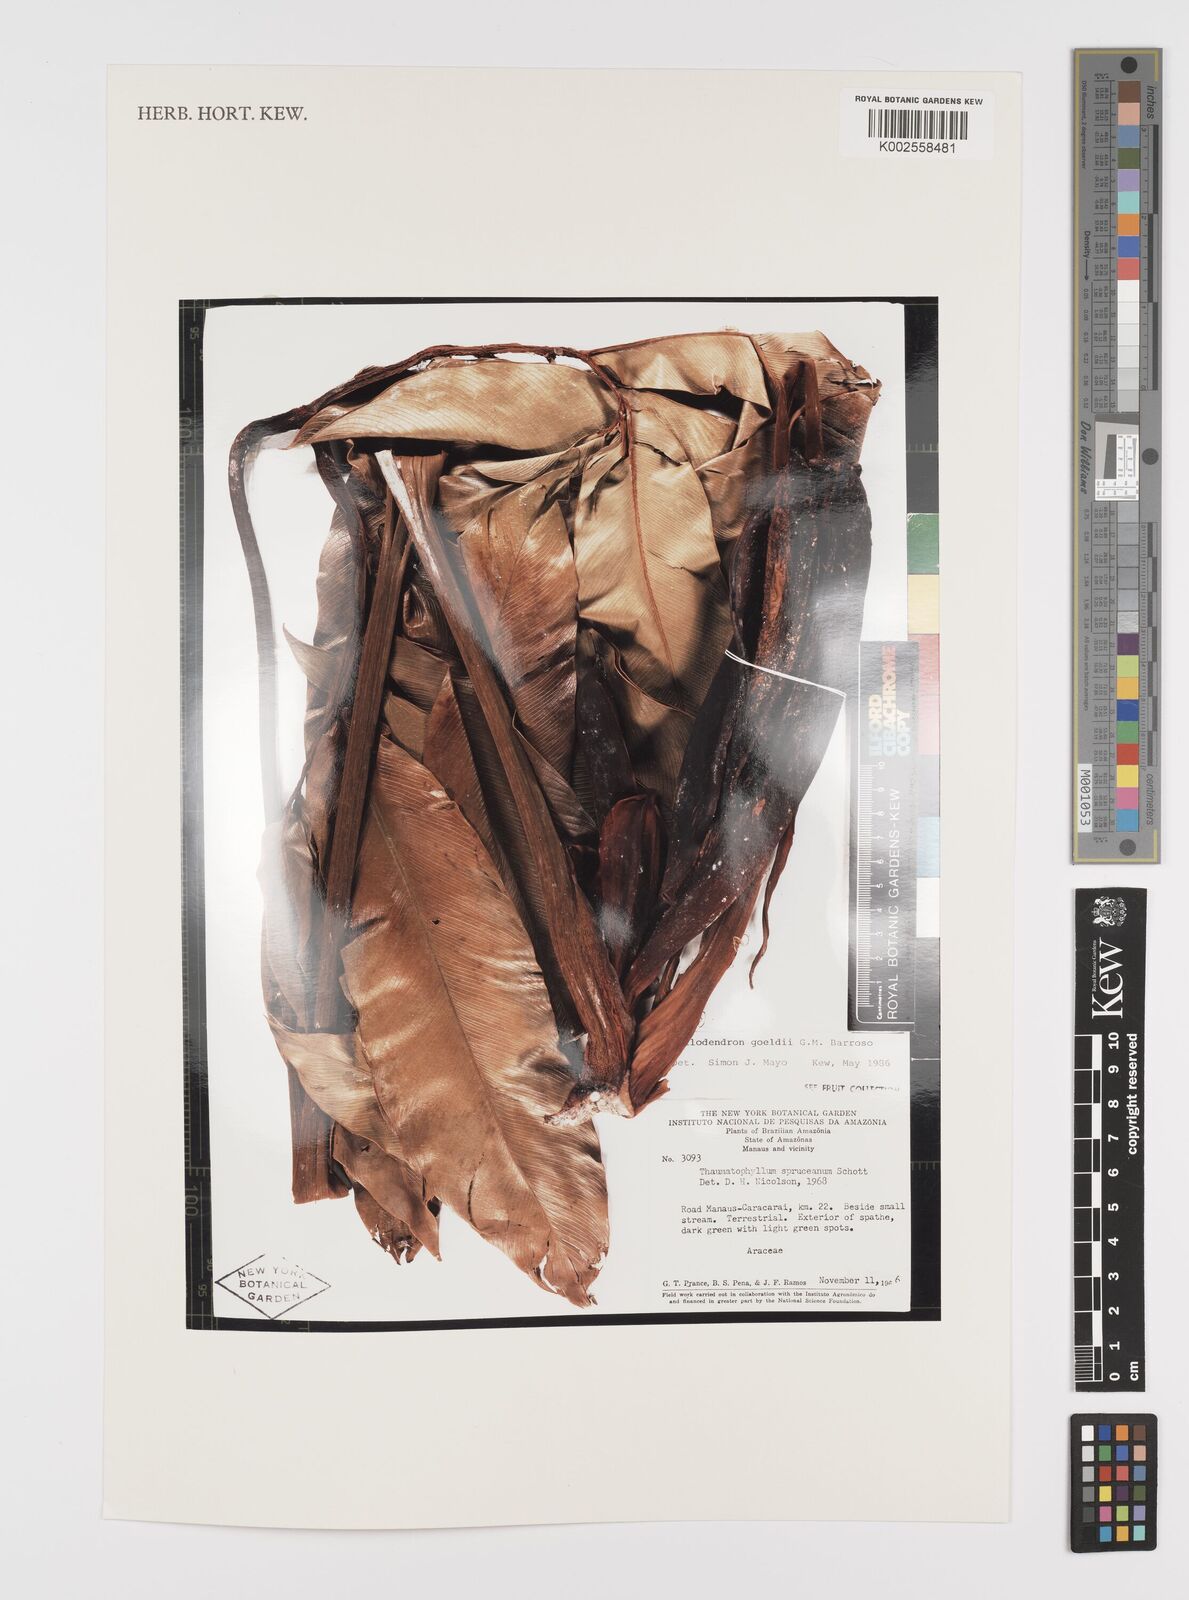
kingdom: Plantae
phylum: Tracheophyta
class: Liliopsida
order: Alismatales
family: Araceae
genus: Thaumatophyllum
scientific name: Thaumatophyllum spruceanum
